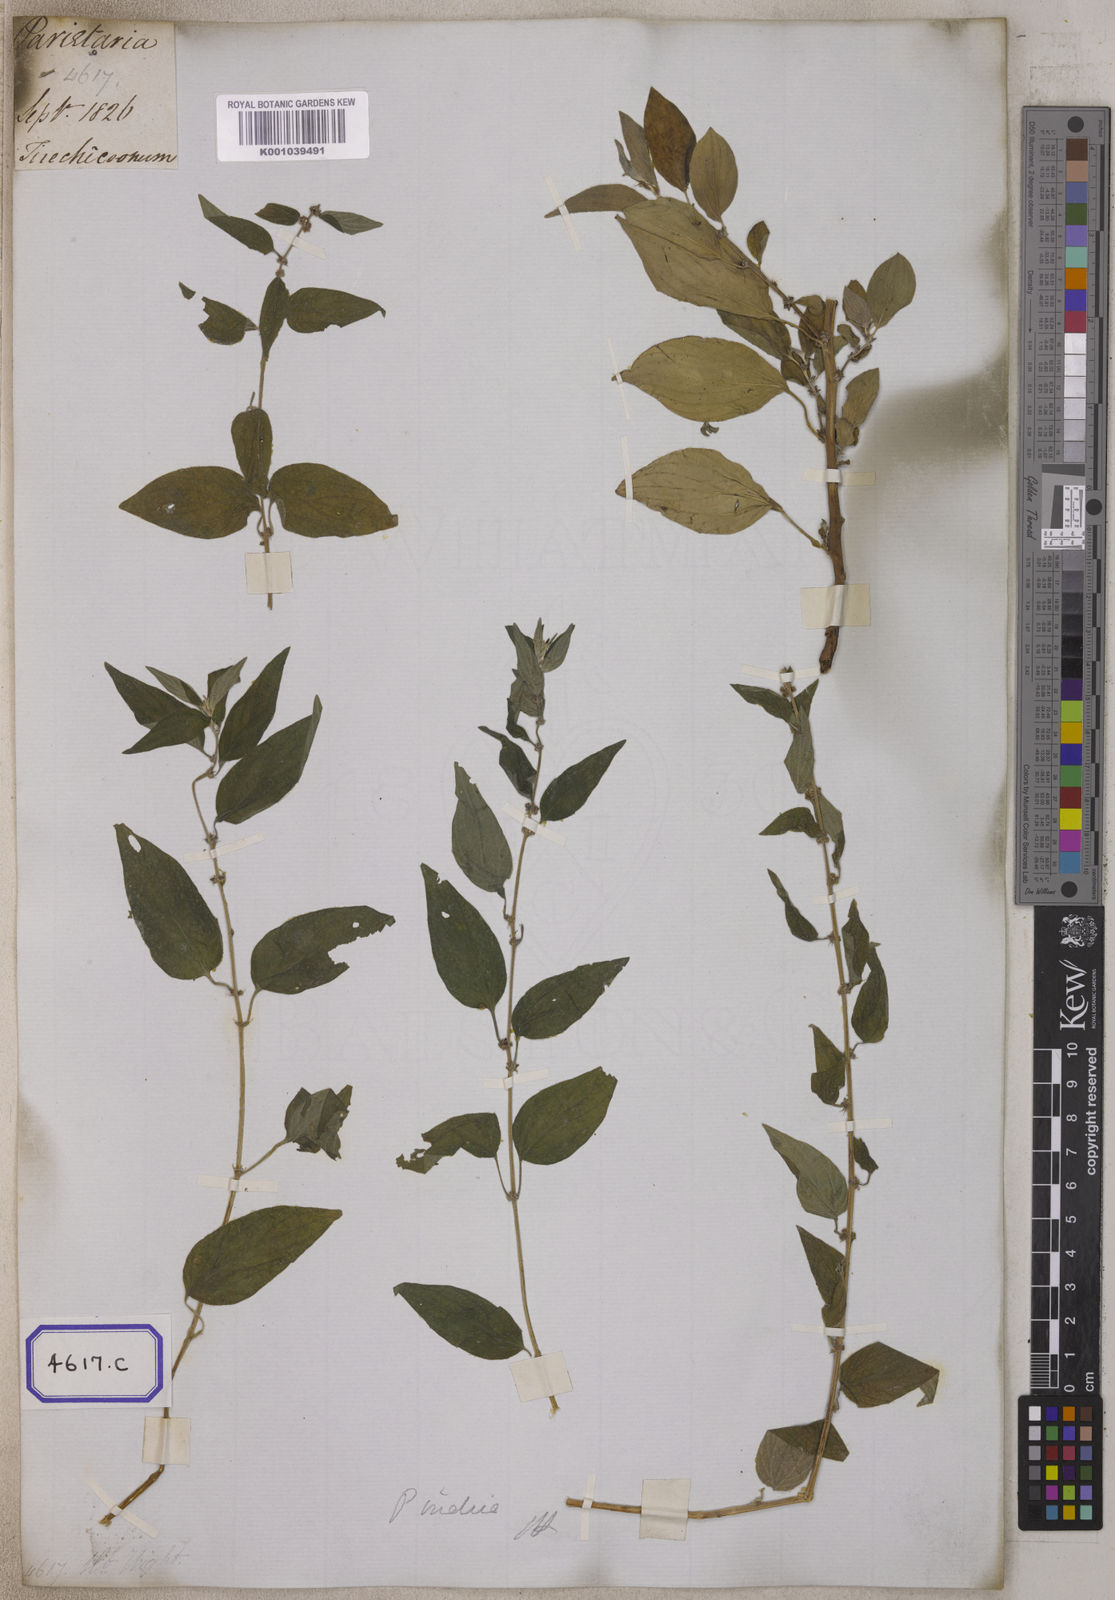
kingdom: Plantae
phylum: Tracheophyta
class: Magnoliopsida
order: Rosales
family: Urticaceae
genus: Urtica
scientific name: Urtica
